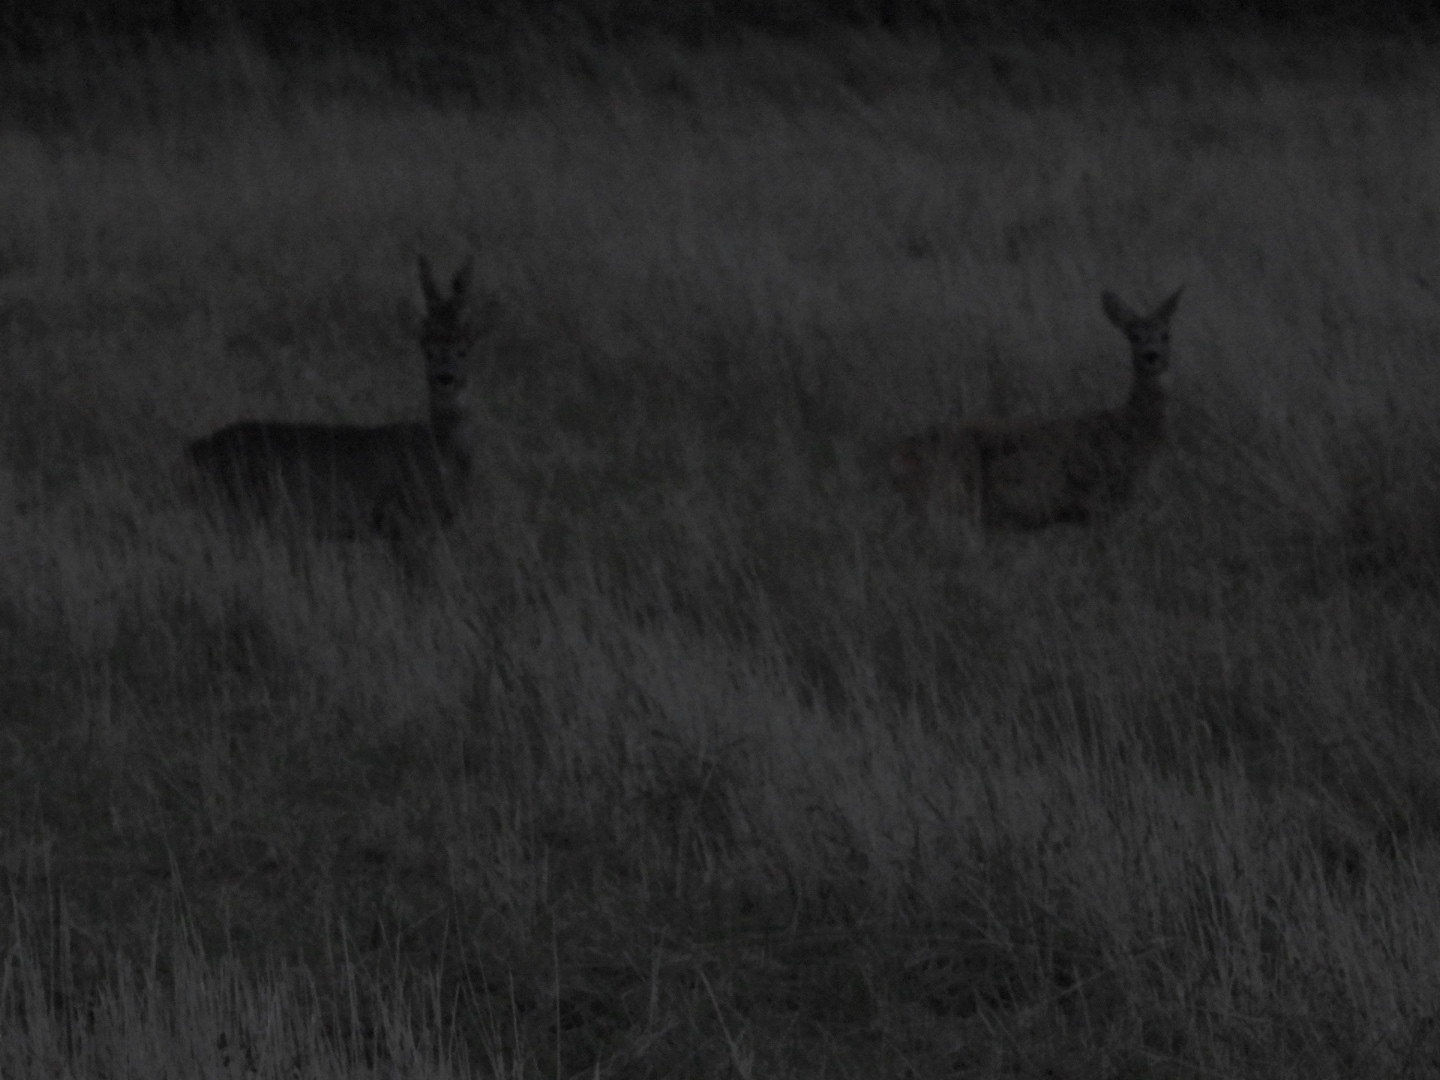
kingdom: Animalia
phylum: Chordata
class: Mammalia
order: Artiodactyla
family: Cervidae
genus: Capreolus
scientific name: Capreolus capreolus
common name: Rådyr
